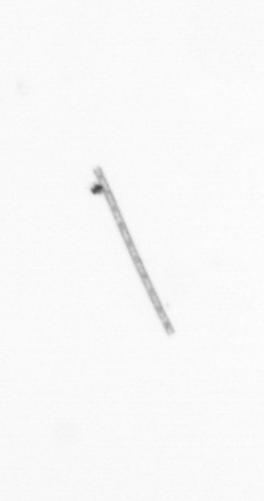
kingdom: Chromista
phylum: Ochrophyta
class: Bacillariophyceae
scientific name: Bacillariophyceae
